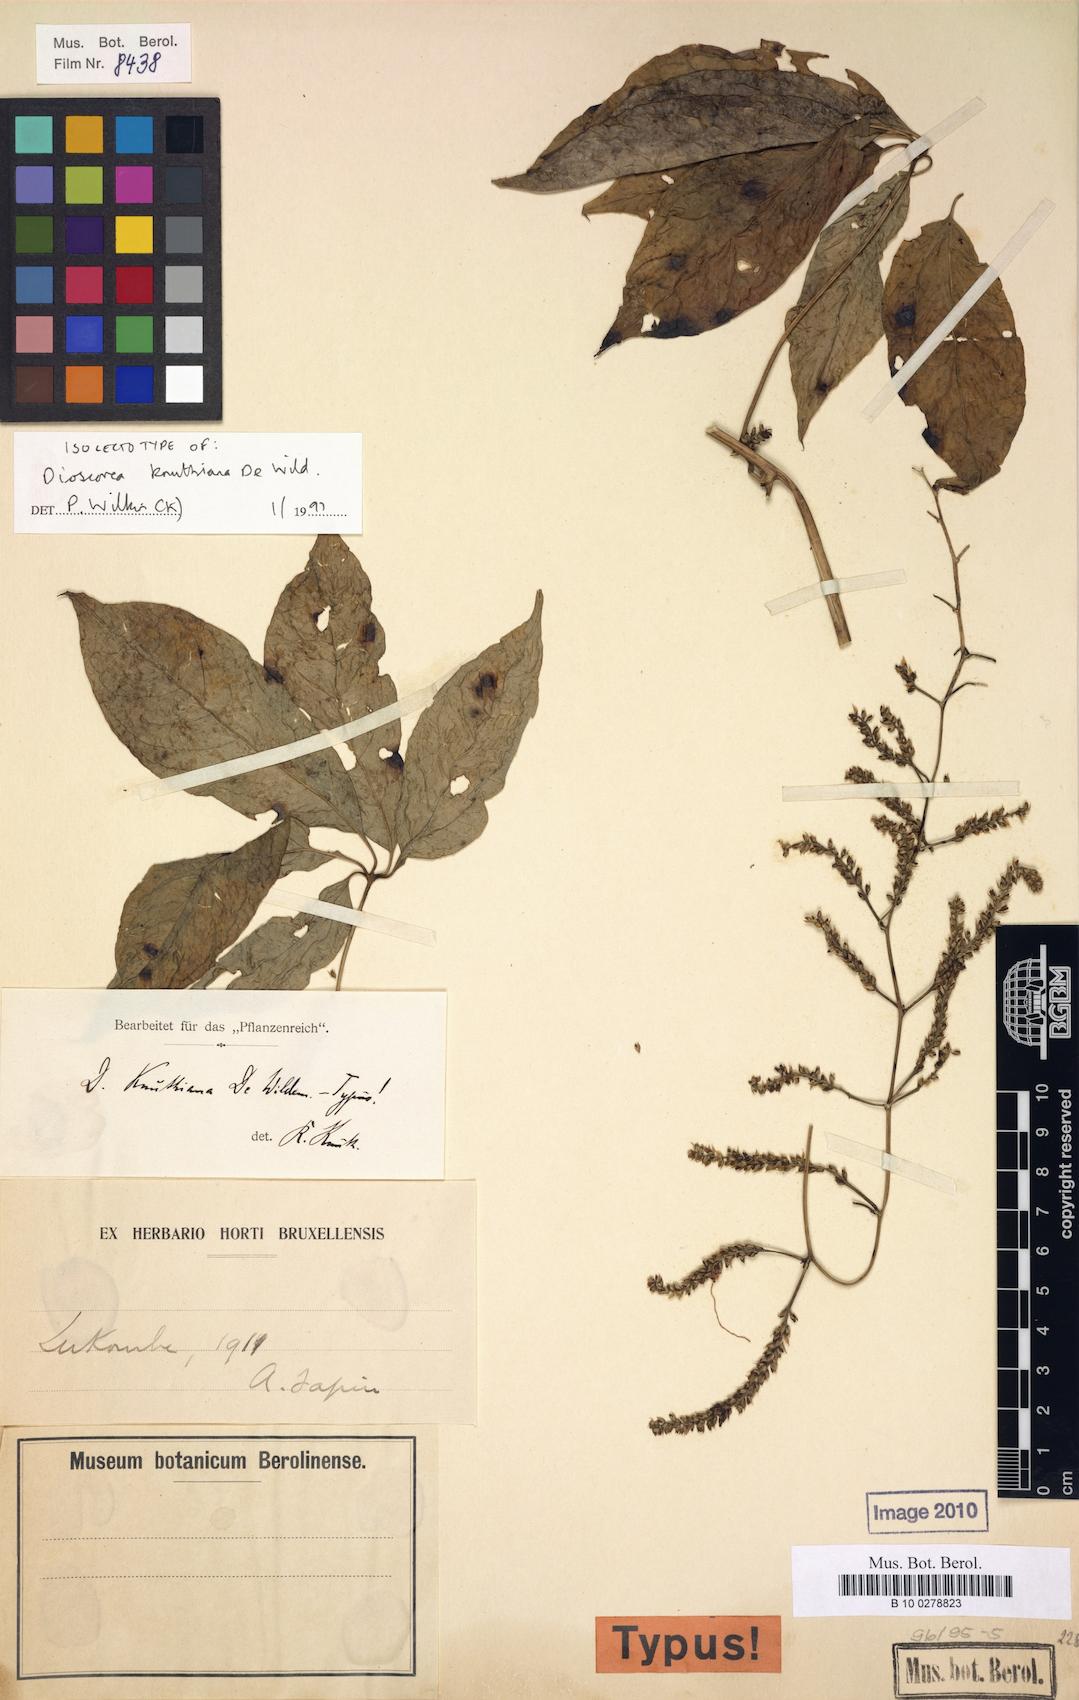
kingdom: Plantae
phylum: Tracheophyta
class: Liliopsida
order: Dioscoreales
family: Dioscoreaceae
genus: Dioscorea
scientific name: Dioscorea knuthiana
